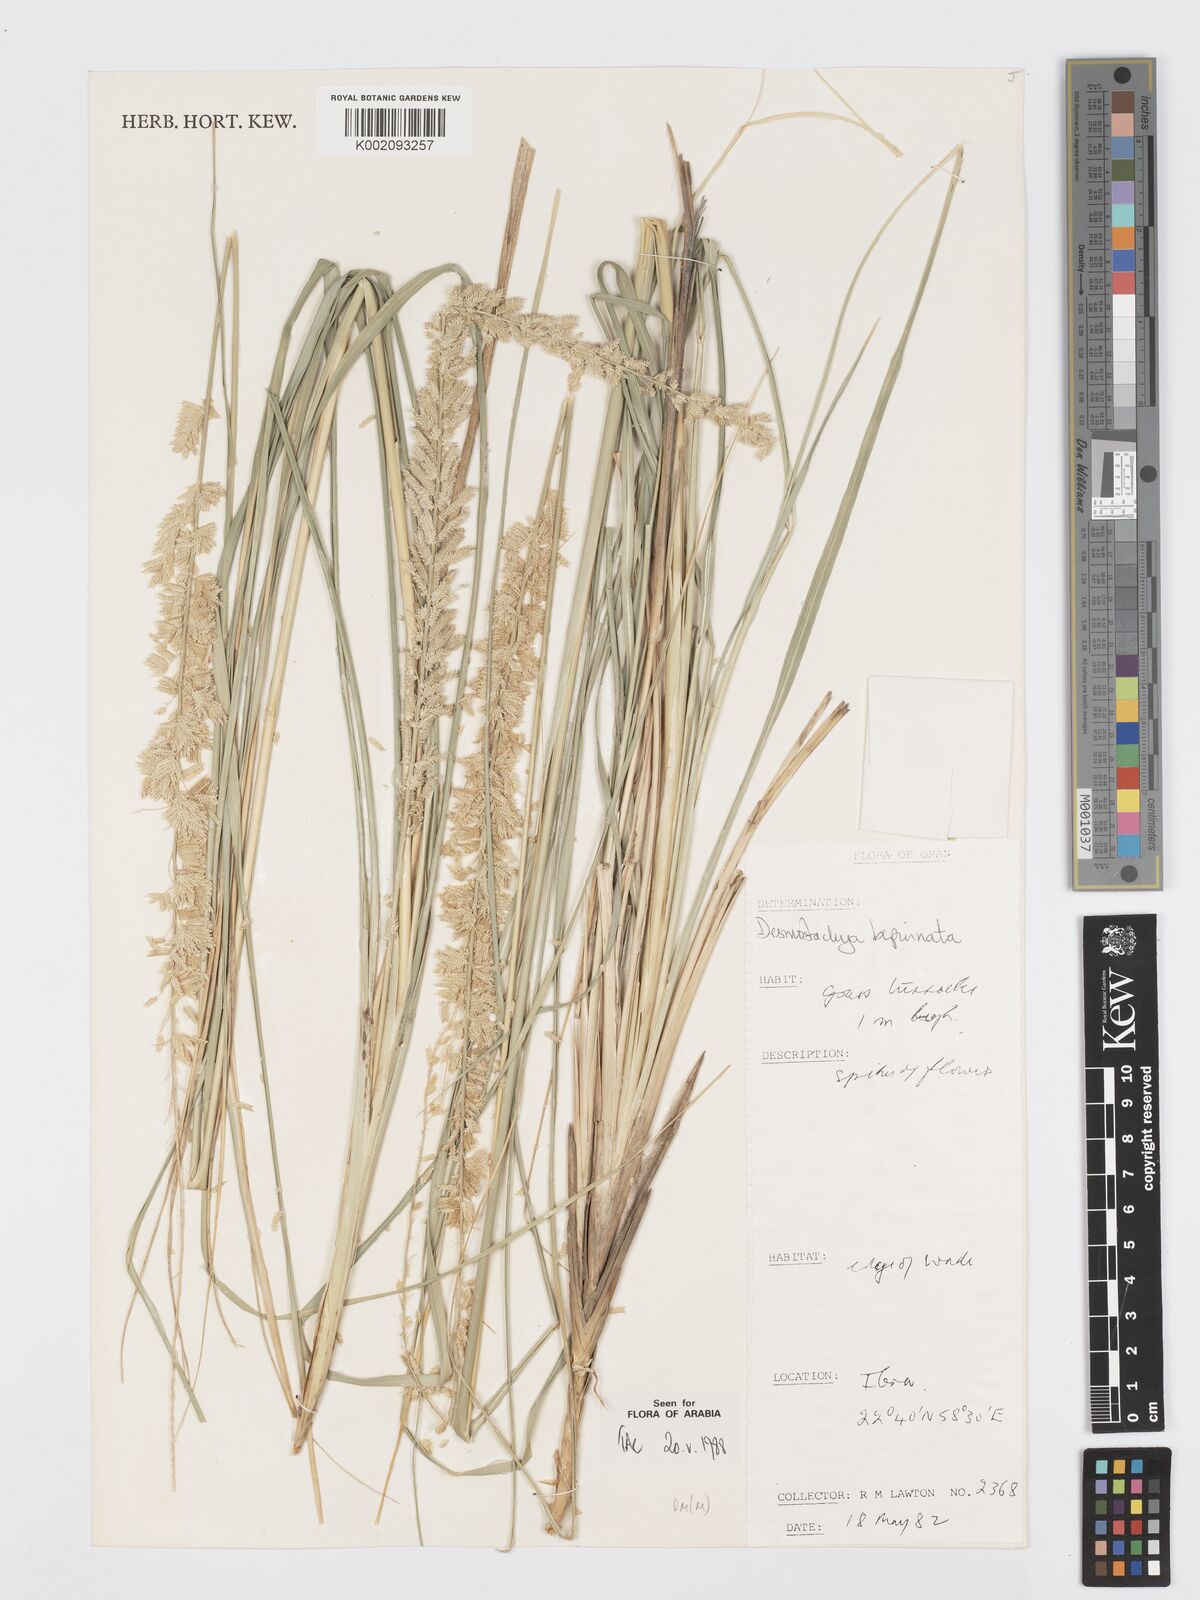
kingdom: Plantae
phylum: Tracheophyta
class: Liliopsida
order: Poales
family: Poaceae
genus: Desmostachya
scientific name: Desmostachya bipinnata
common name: Crowfoot grass
